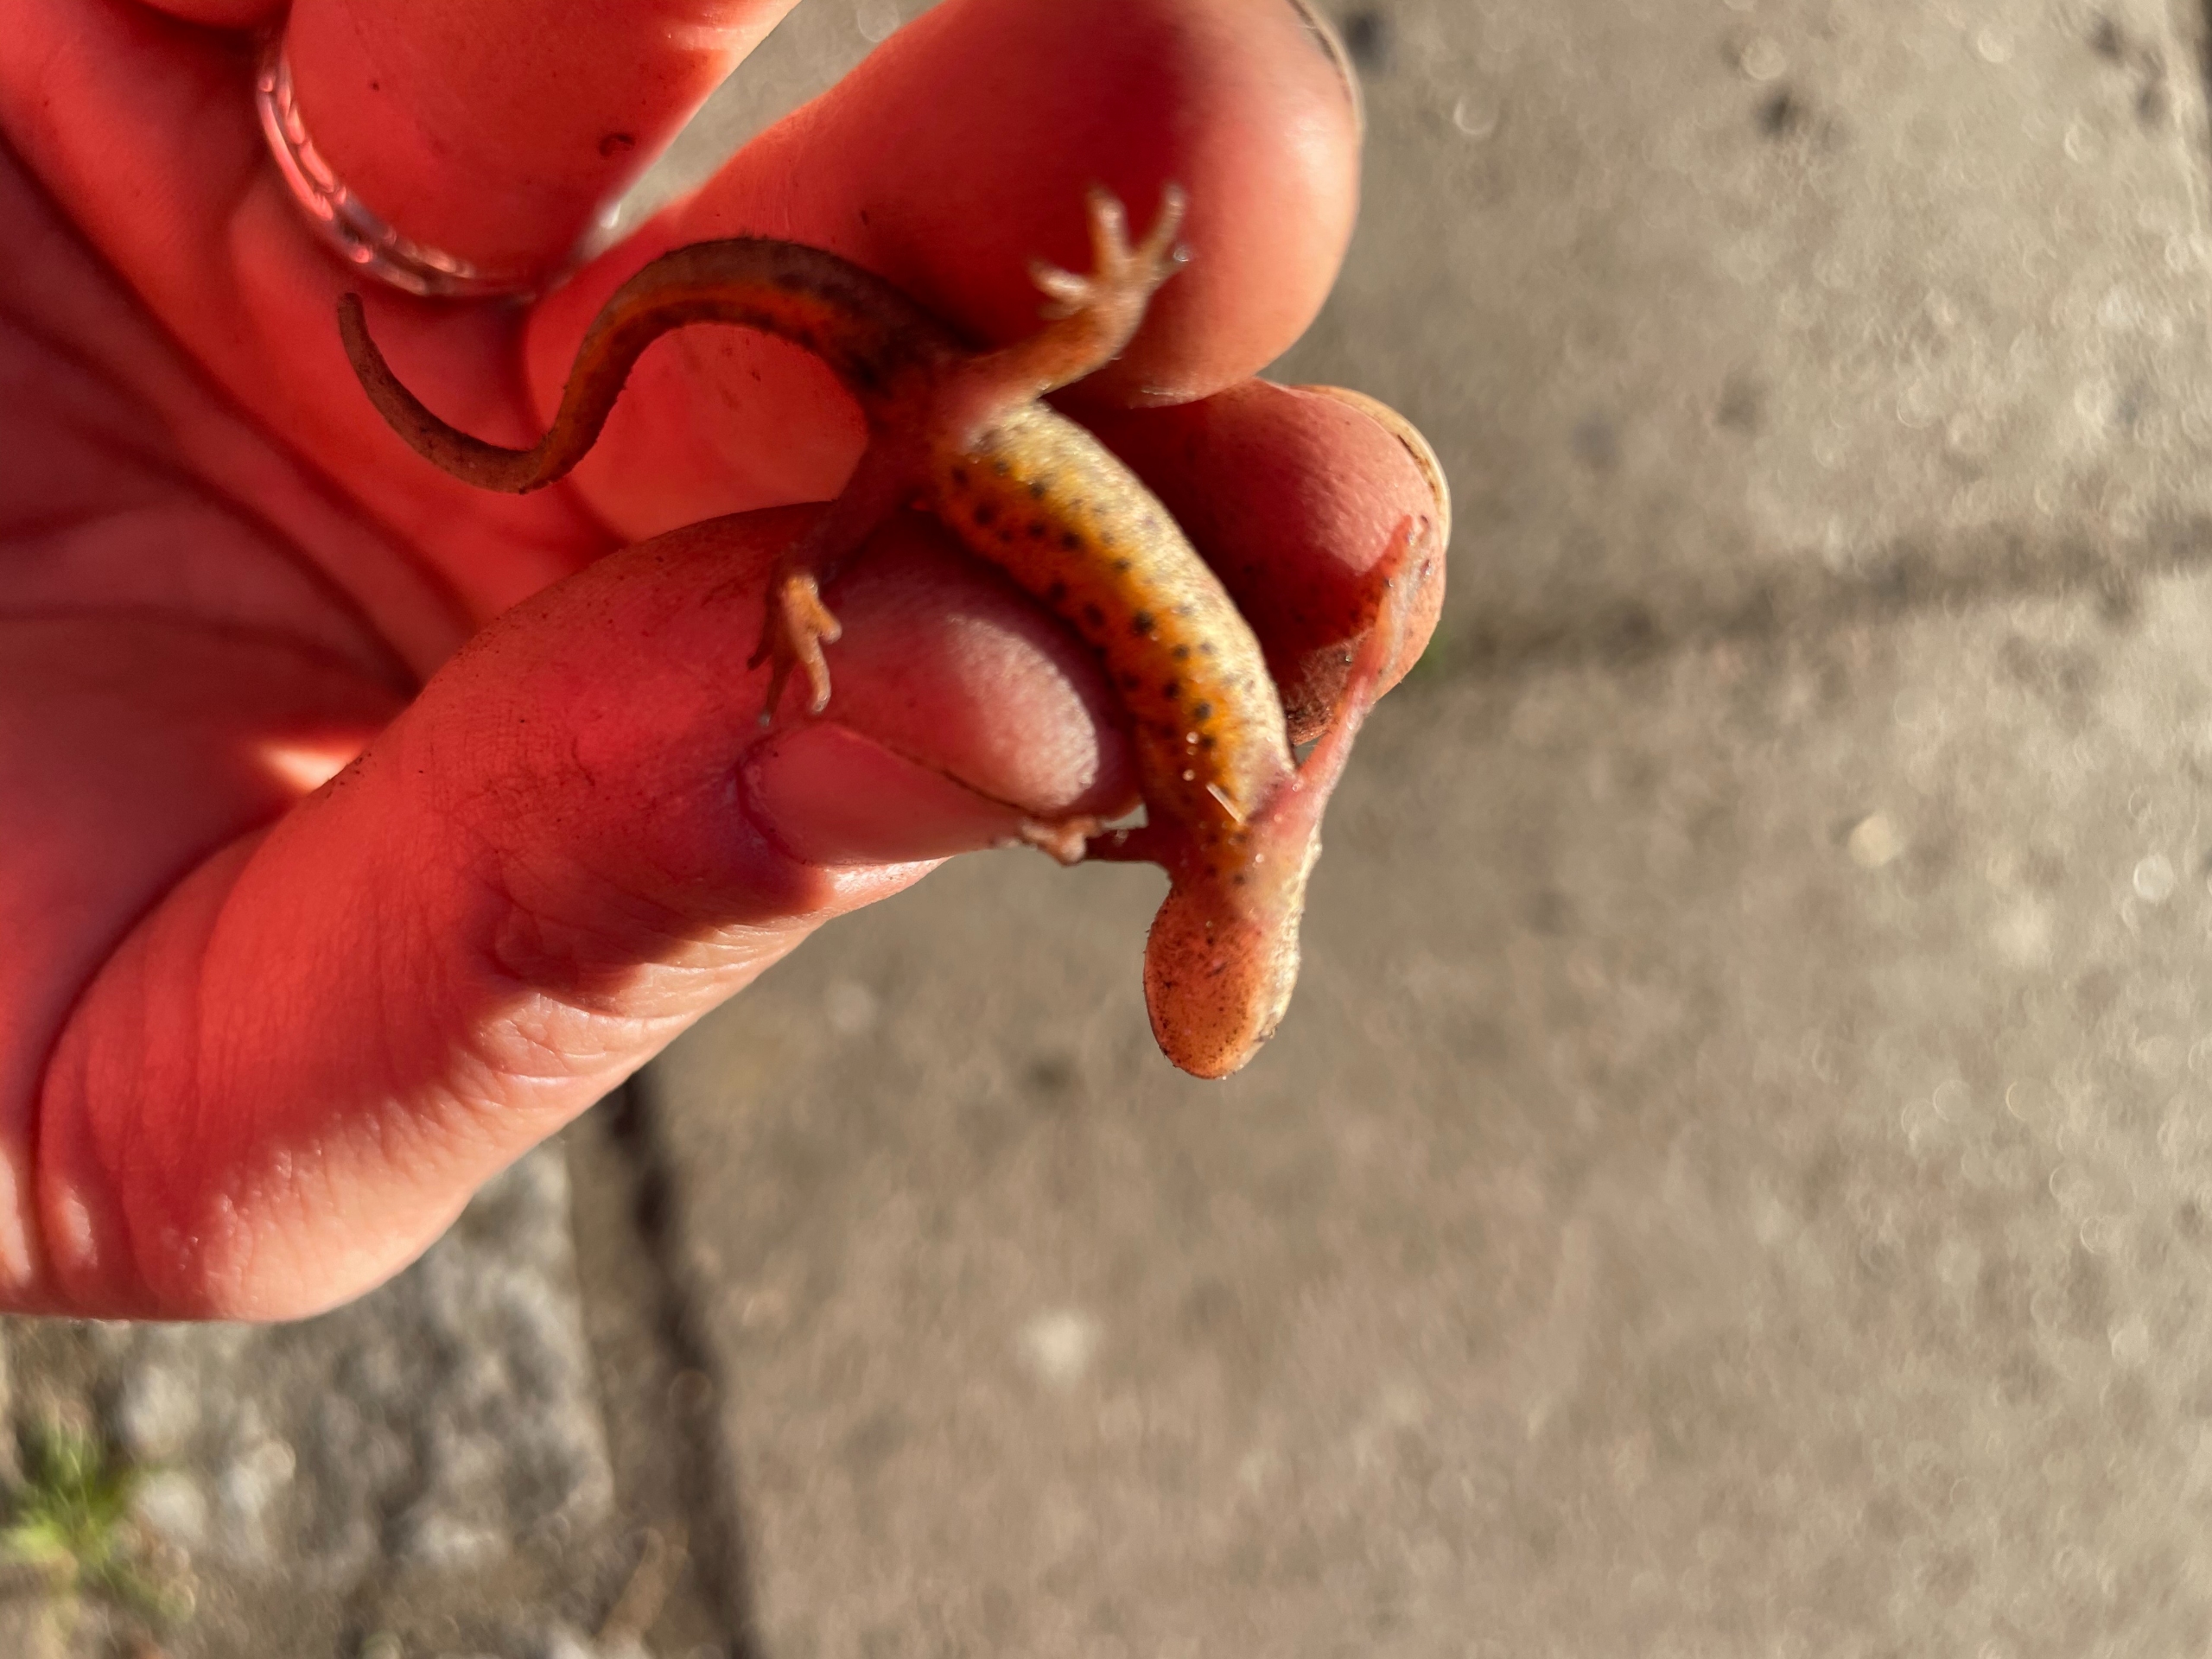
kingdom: Animalia
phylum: Chordata
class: Amphibia
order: Caudata
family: Salamandridae
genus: Lissotriton
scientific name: Lissotriton vulgaris
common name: Lille vandsalamander
